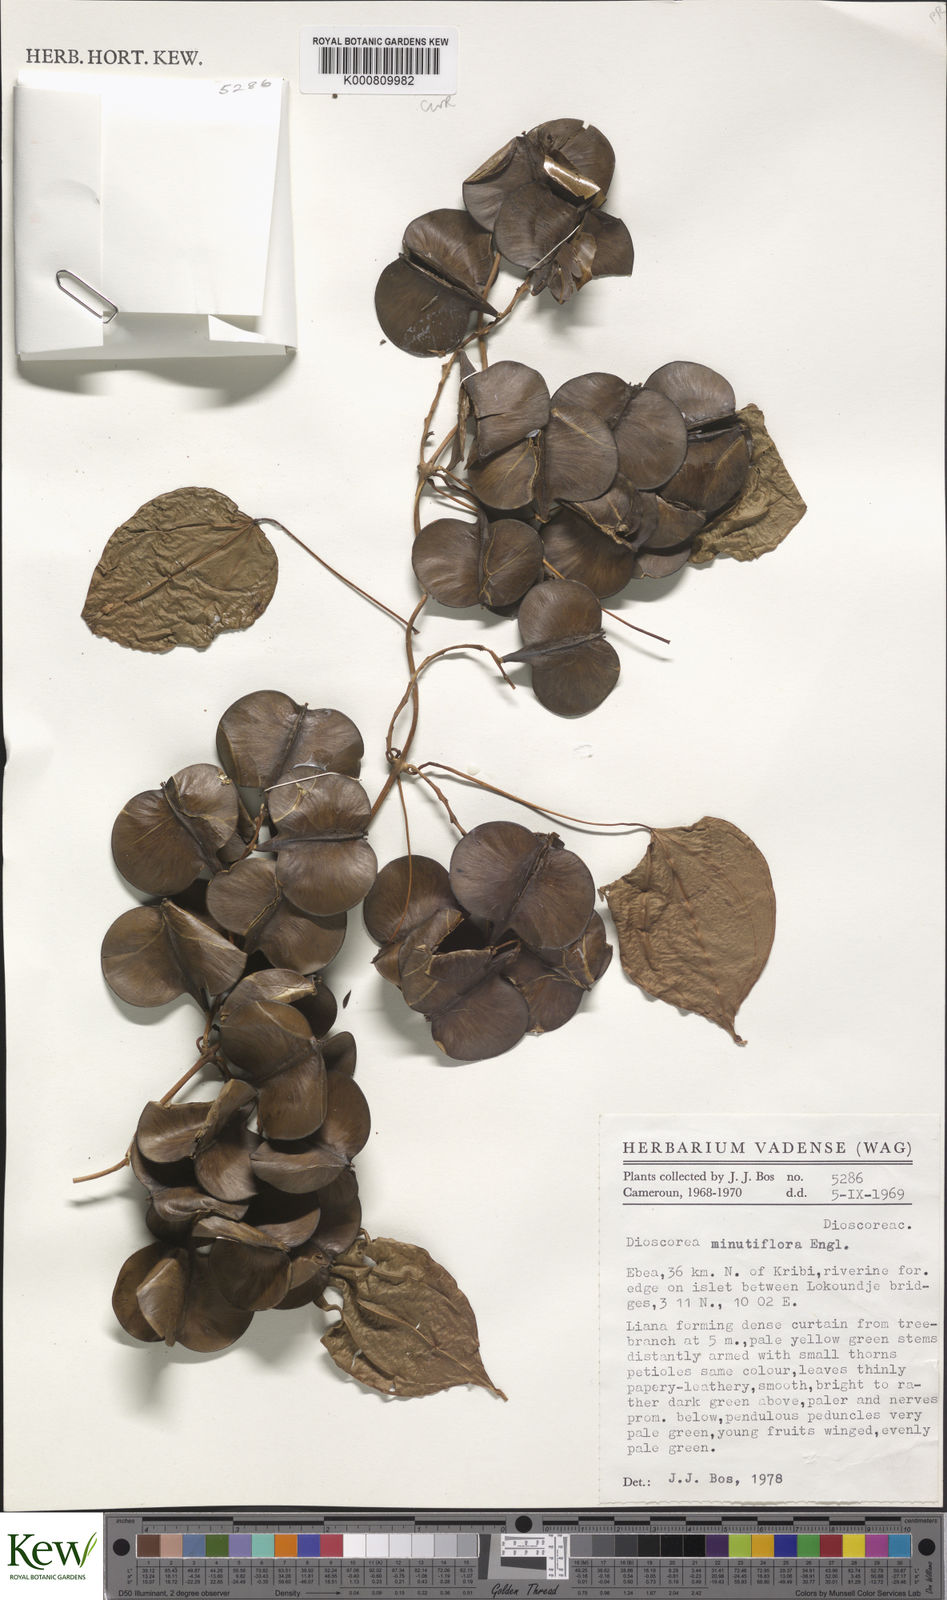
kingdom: Plantae
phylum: Tracheophyta
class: Liliopsida
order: Dioscoreales
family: Dioscoreaceae
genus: Dioscorea
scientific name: Dioscorea minutiflora
